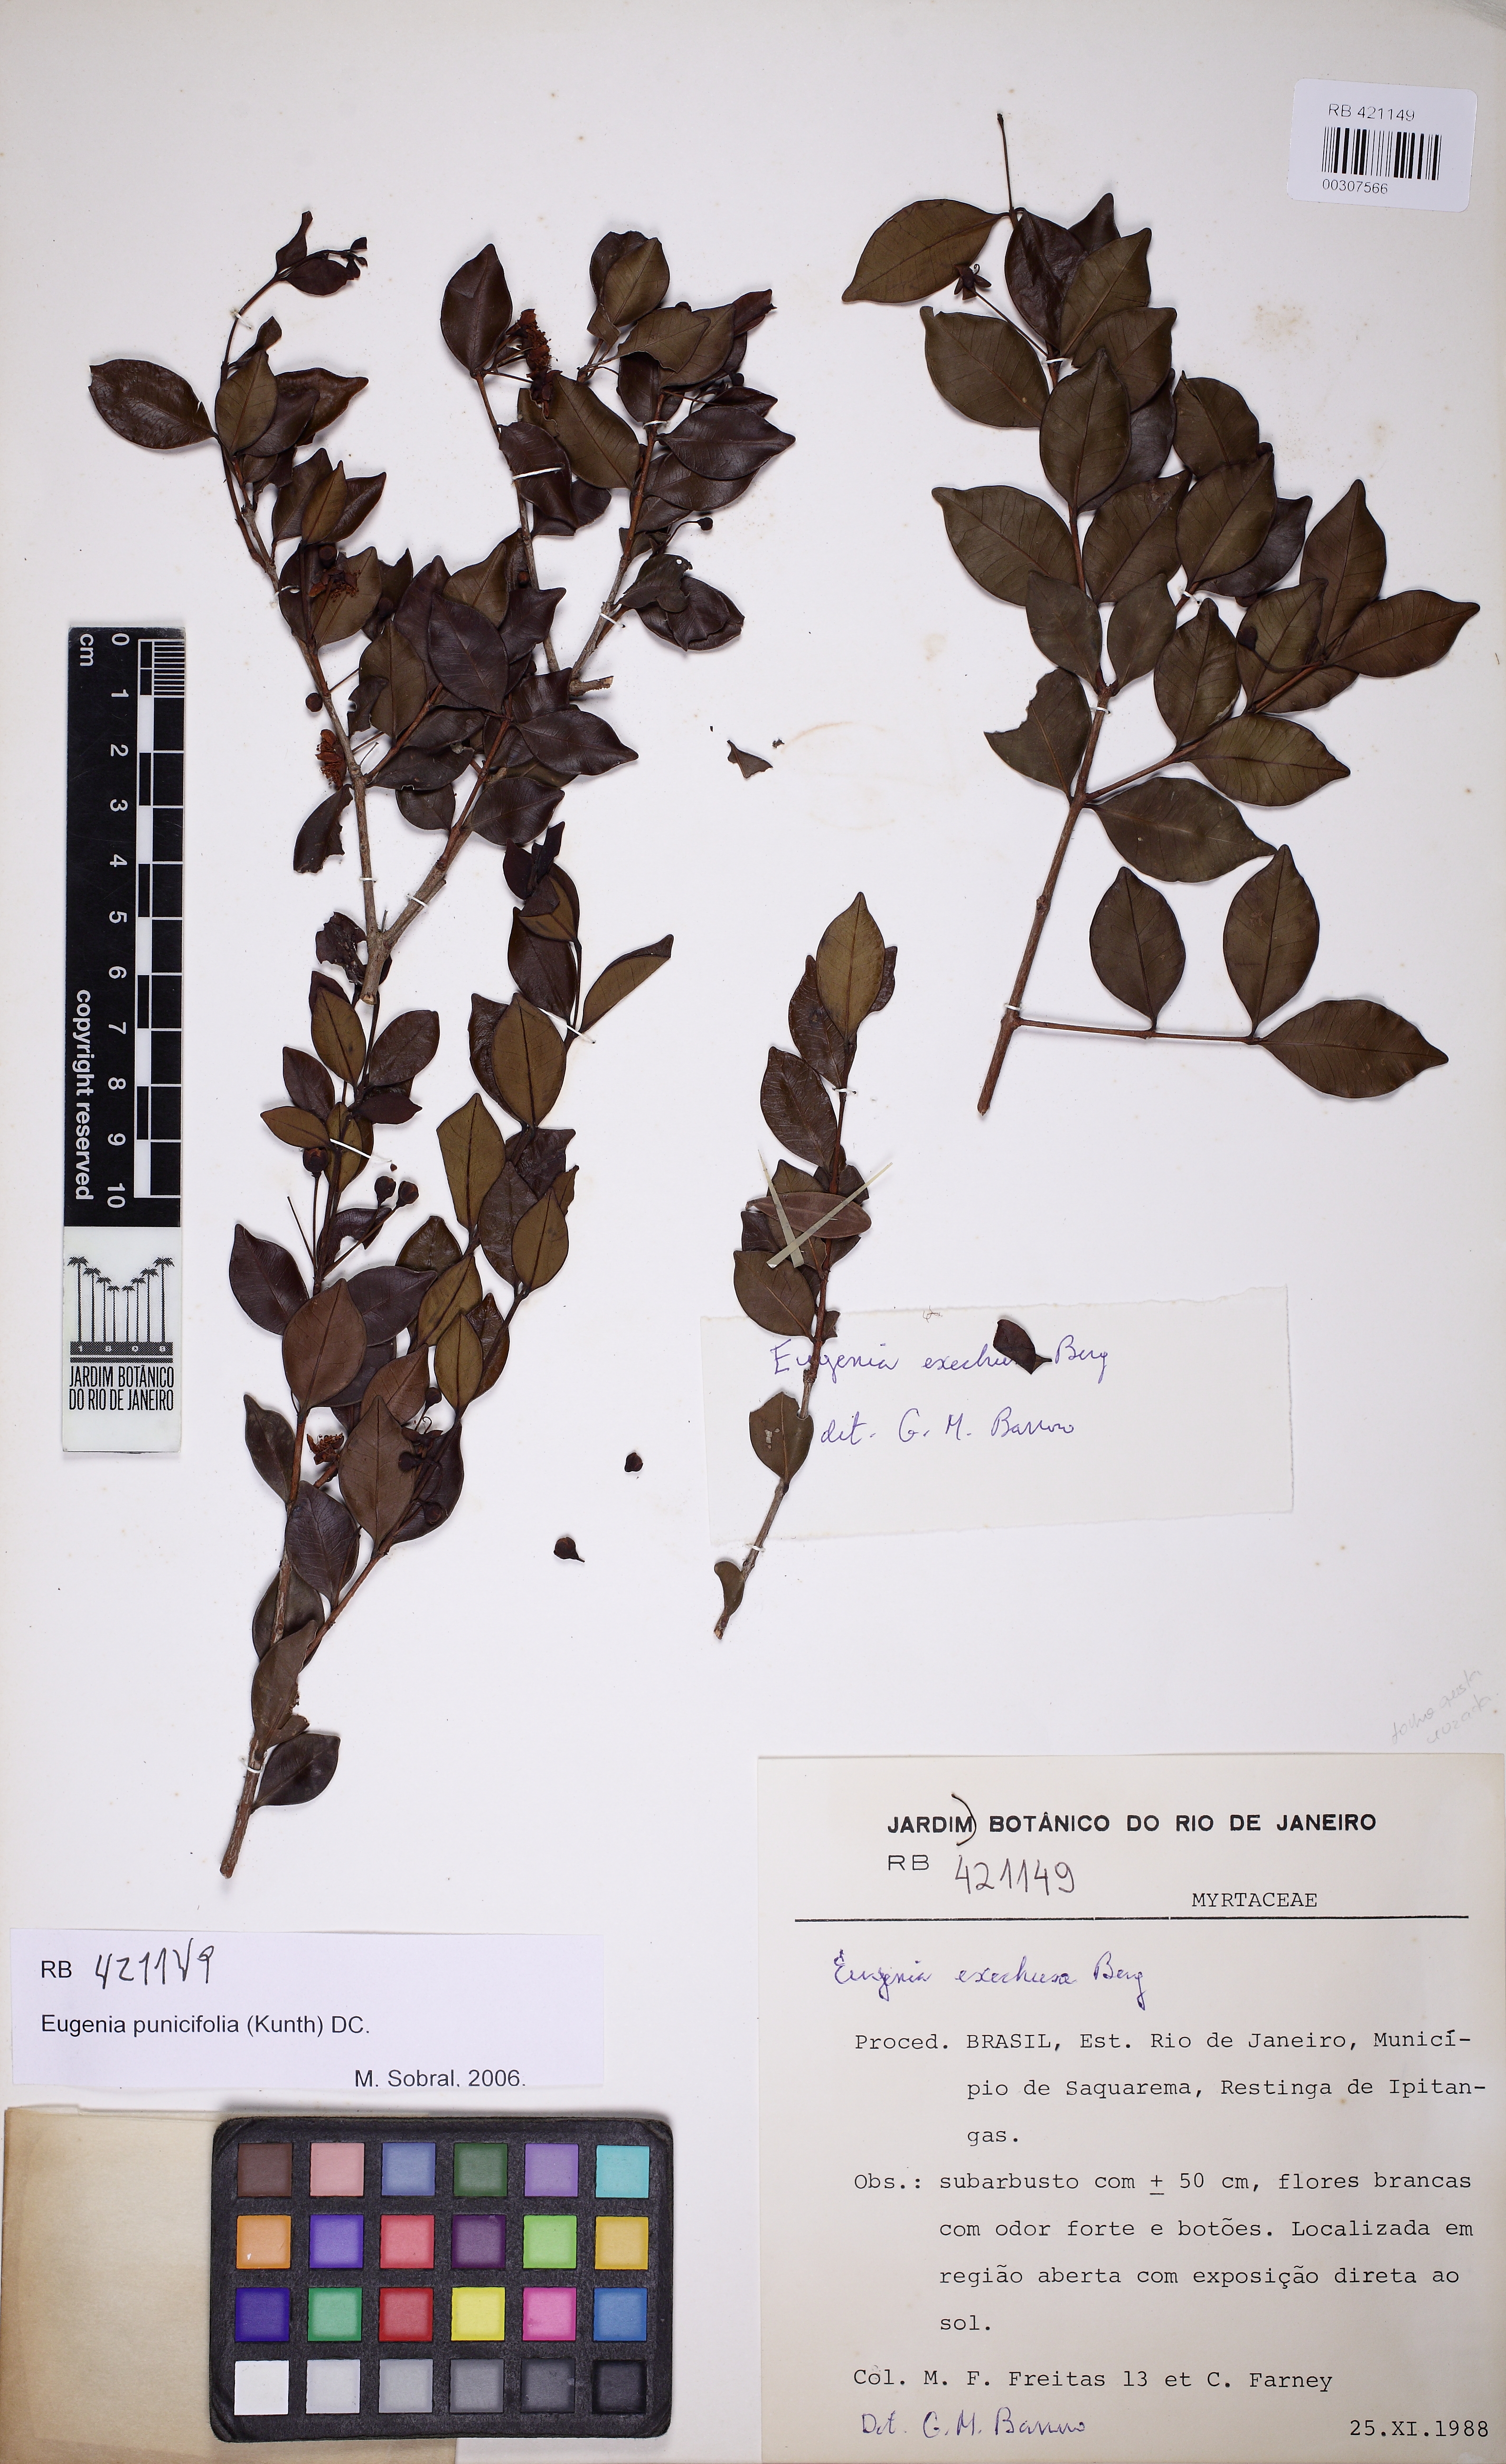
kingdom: Plantae
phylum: Tracheophyta
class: Magnoliopsida
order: Myrtales
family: Myrtaceae
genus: Eugenia
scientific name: Eugenia punicifolia
